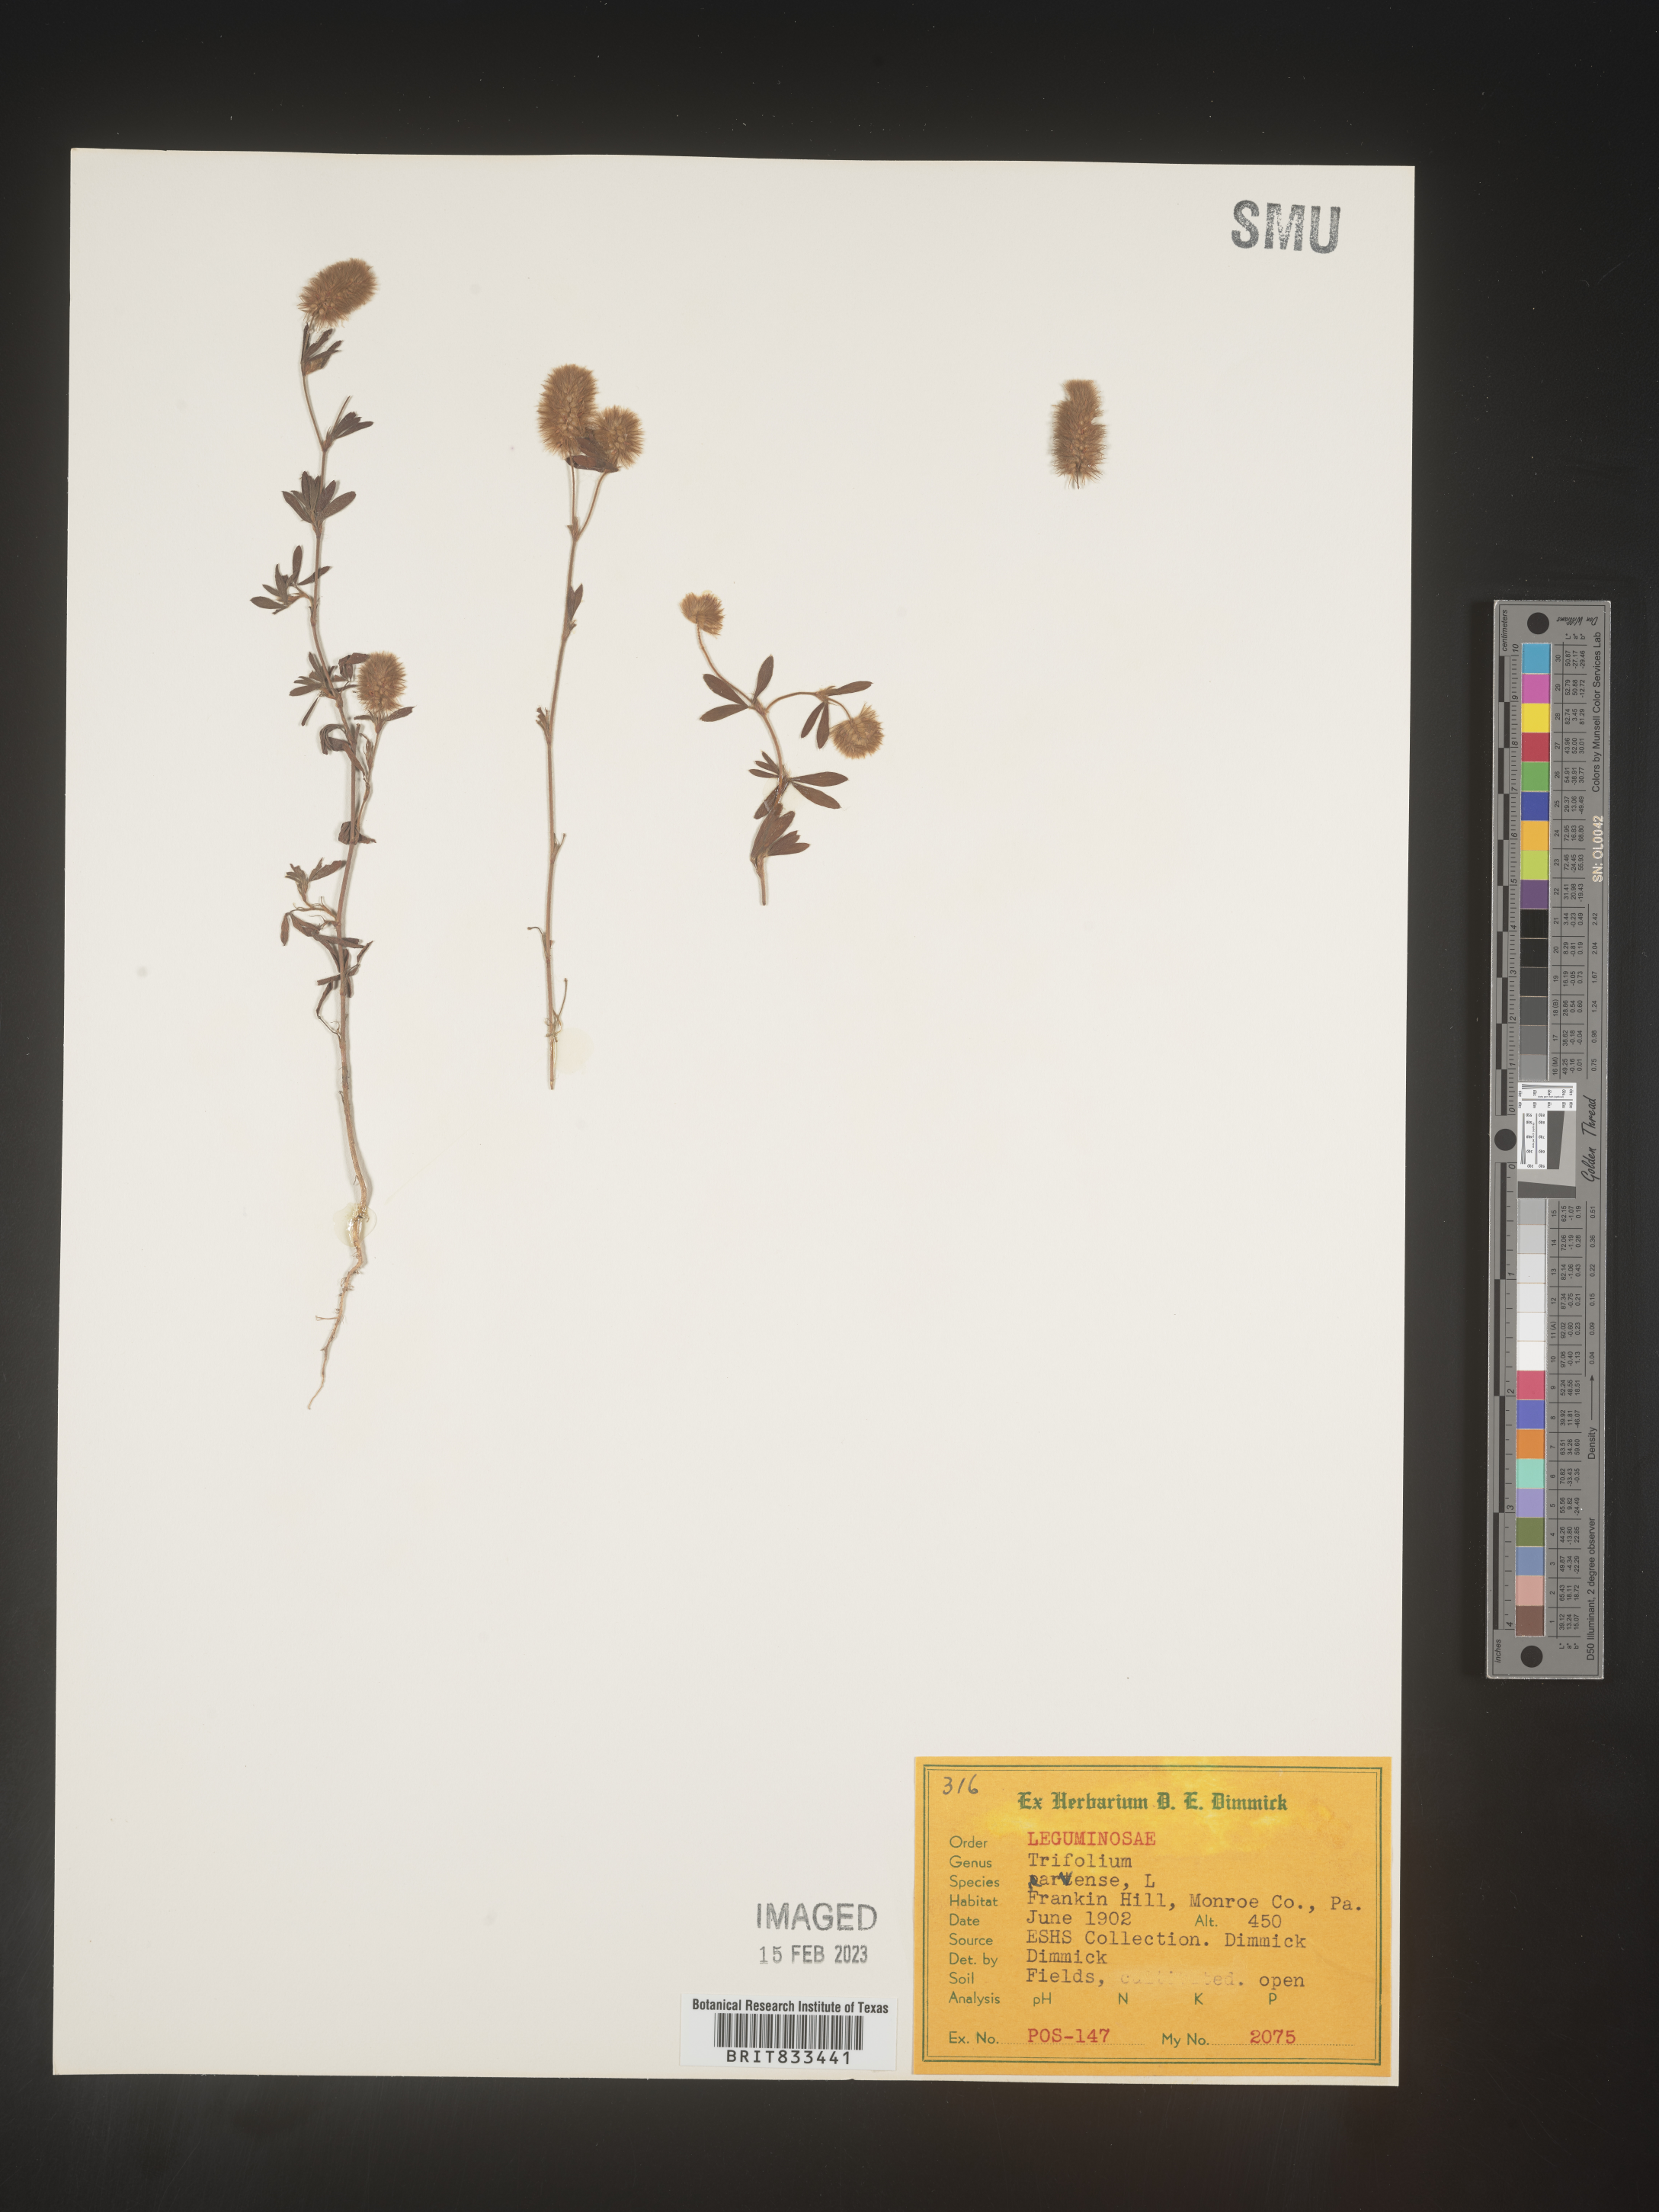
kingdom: Plantae
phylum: Tracheophyta
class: Magnoliopsida
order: Fabales
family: Fabaceae
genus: Trifolium
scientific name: Trifolium arvense
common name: Hare's-foot clover
